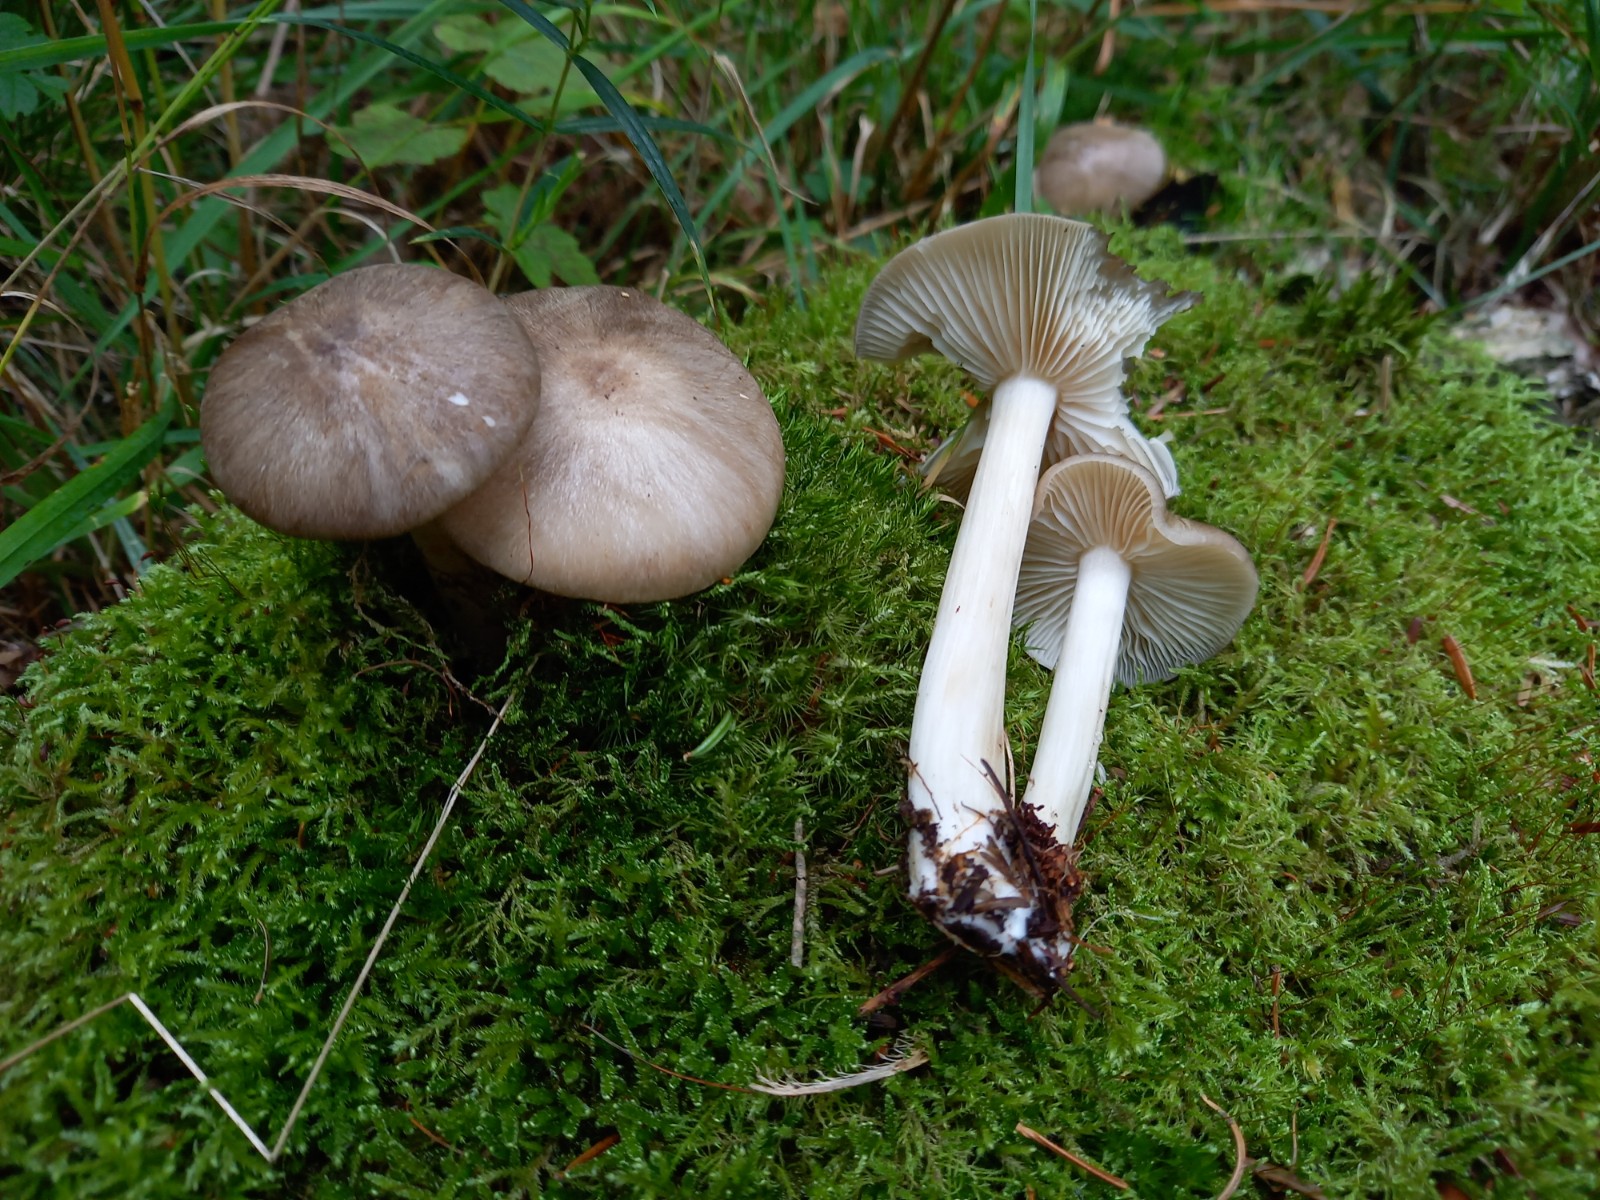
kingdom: Fungi
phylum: Basidiomycota
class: Agaricomycetes
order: Agaricales
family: Tricholomataceae
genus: Megacollybia
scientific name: Megacollybia platyphylla
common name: bredbladet væbnerhat
